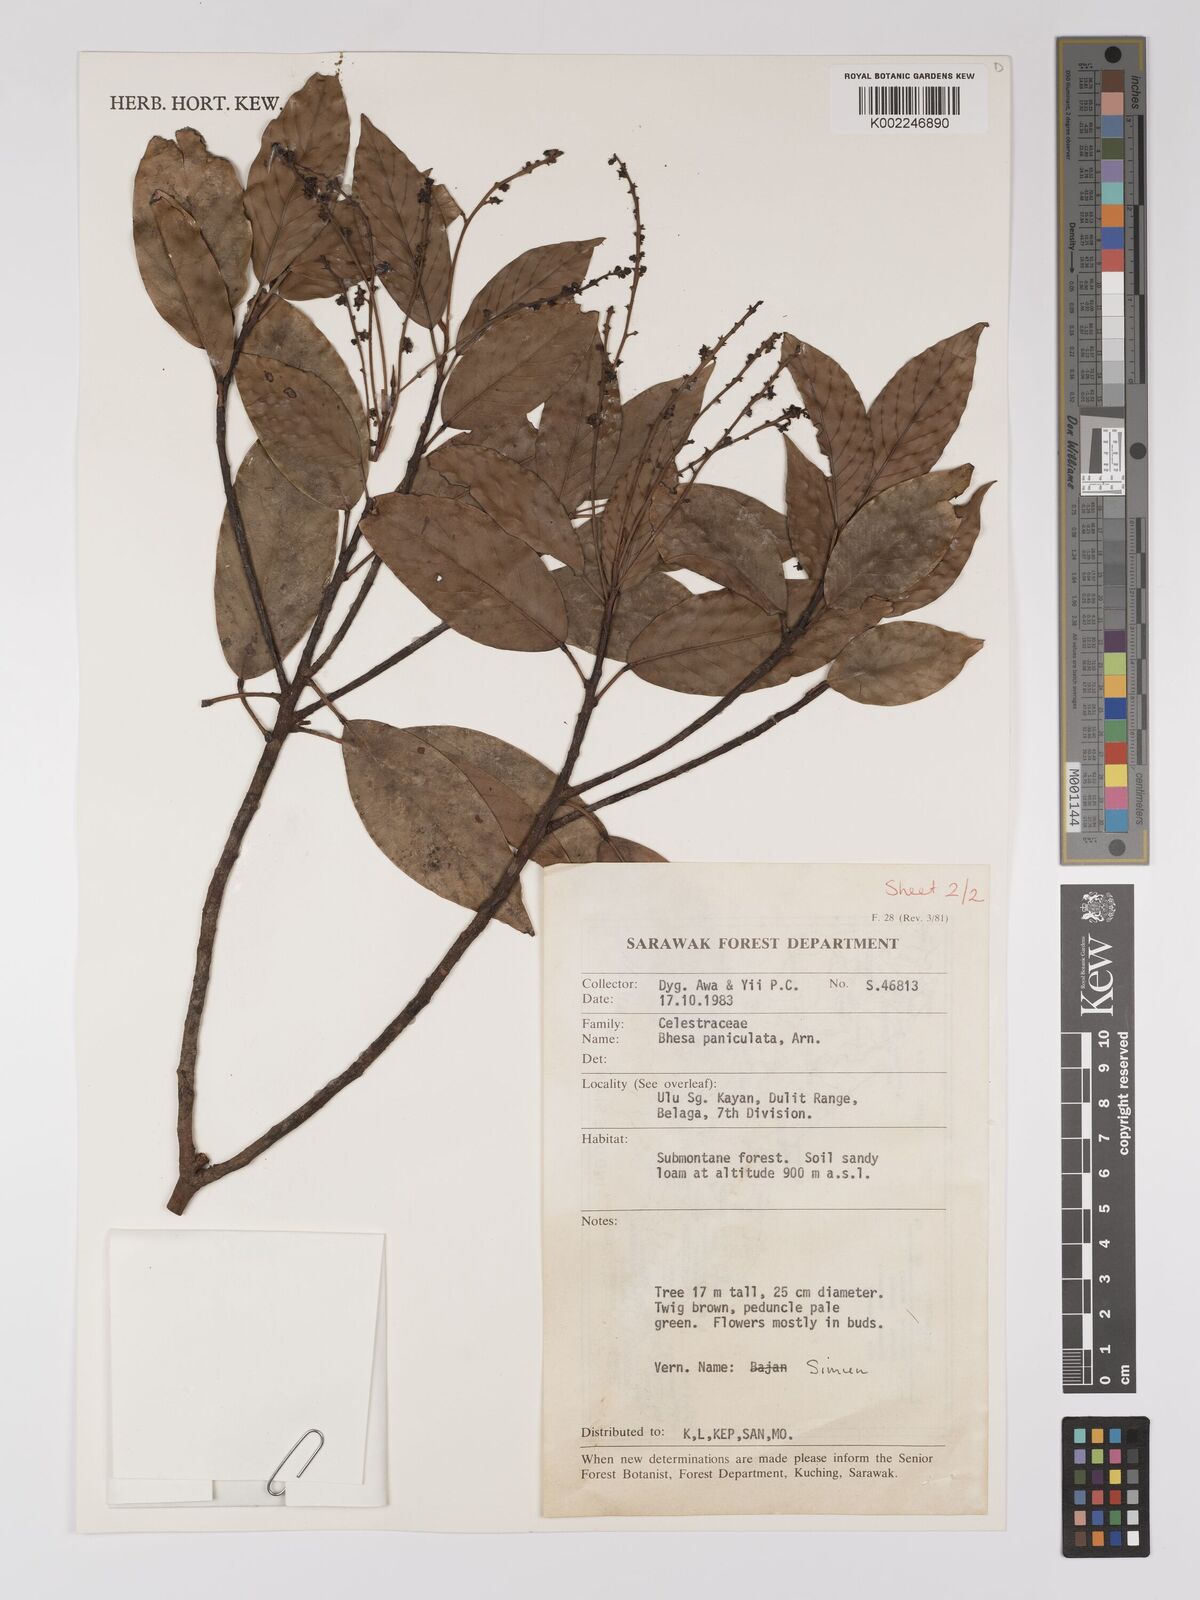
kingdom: Plantae
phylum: Tracheophyta
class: Magnoliopsida
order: Malpighiales
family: Centroplacaceae
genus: Bhesa
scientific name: Bhesa paniculata
